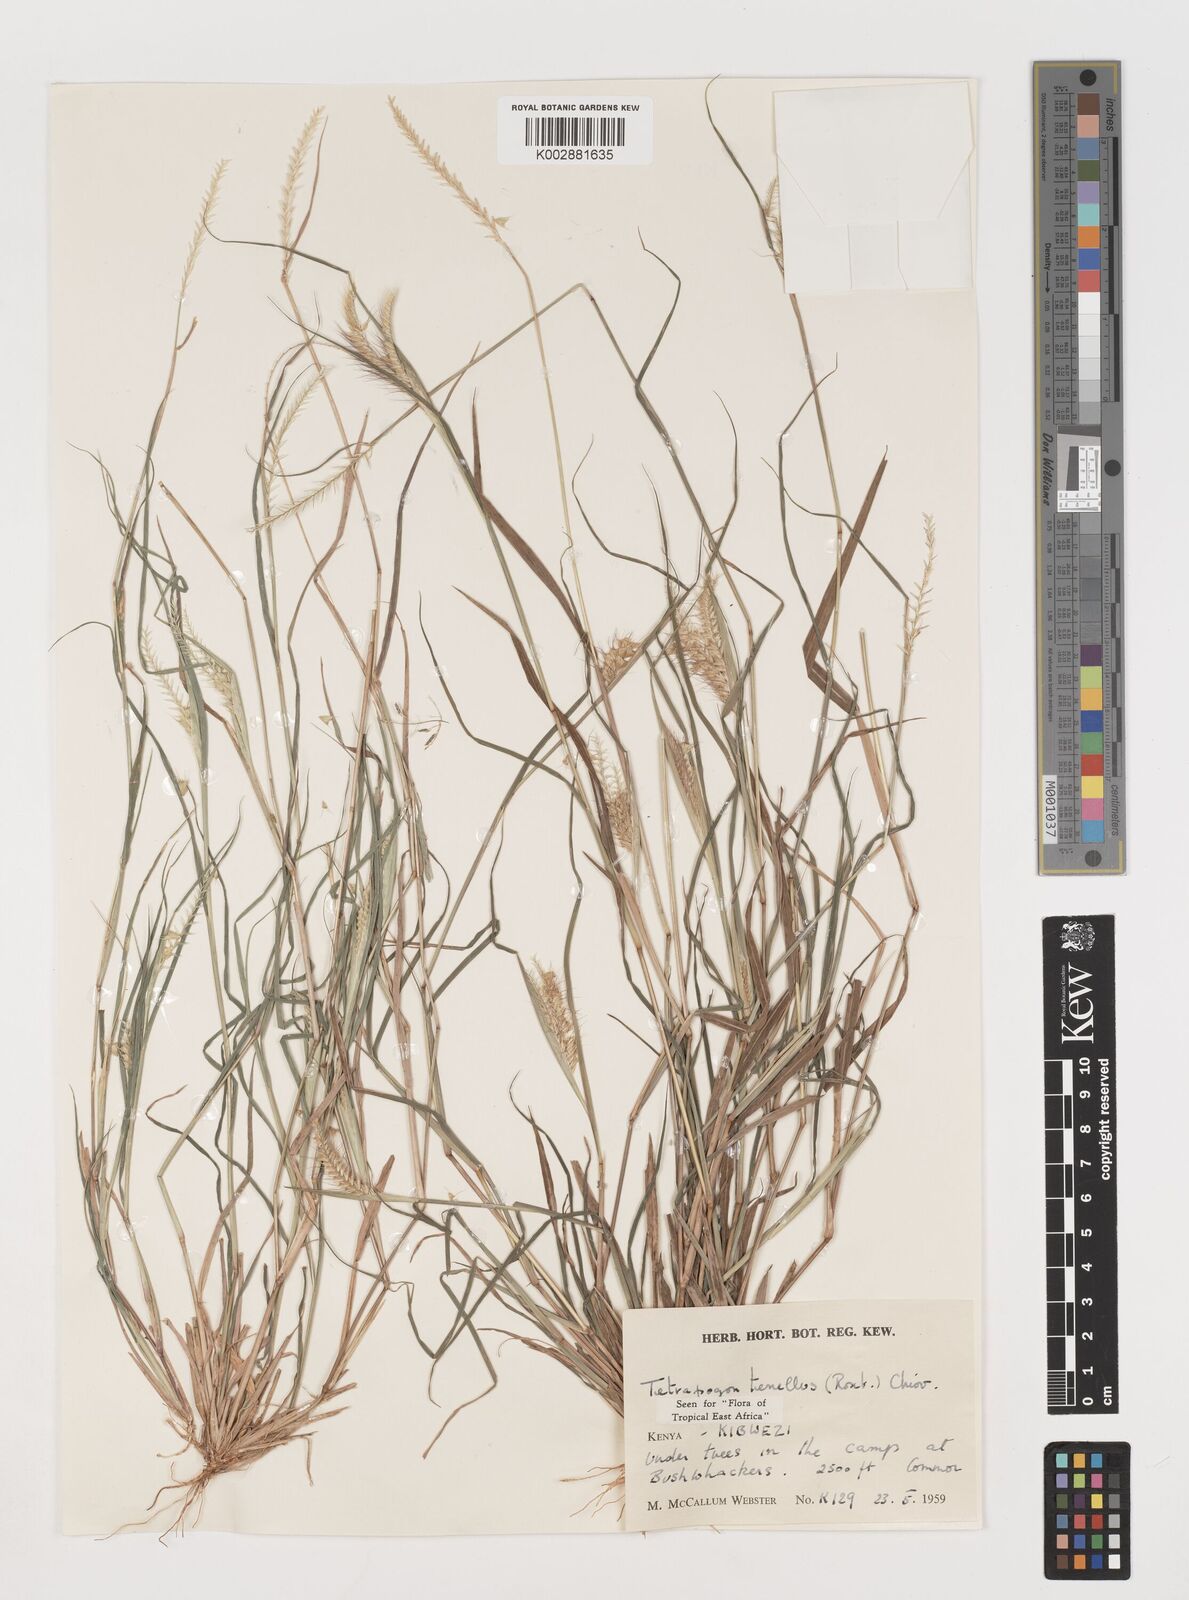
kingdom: Plantae
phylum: Tracheophyta
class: Liliopsida
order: Poales
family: Poaceae
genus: Tetrapogon
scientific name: Tetrapogon tenellus
